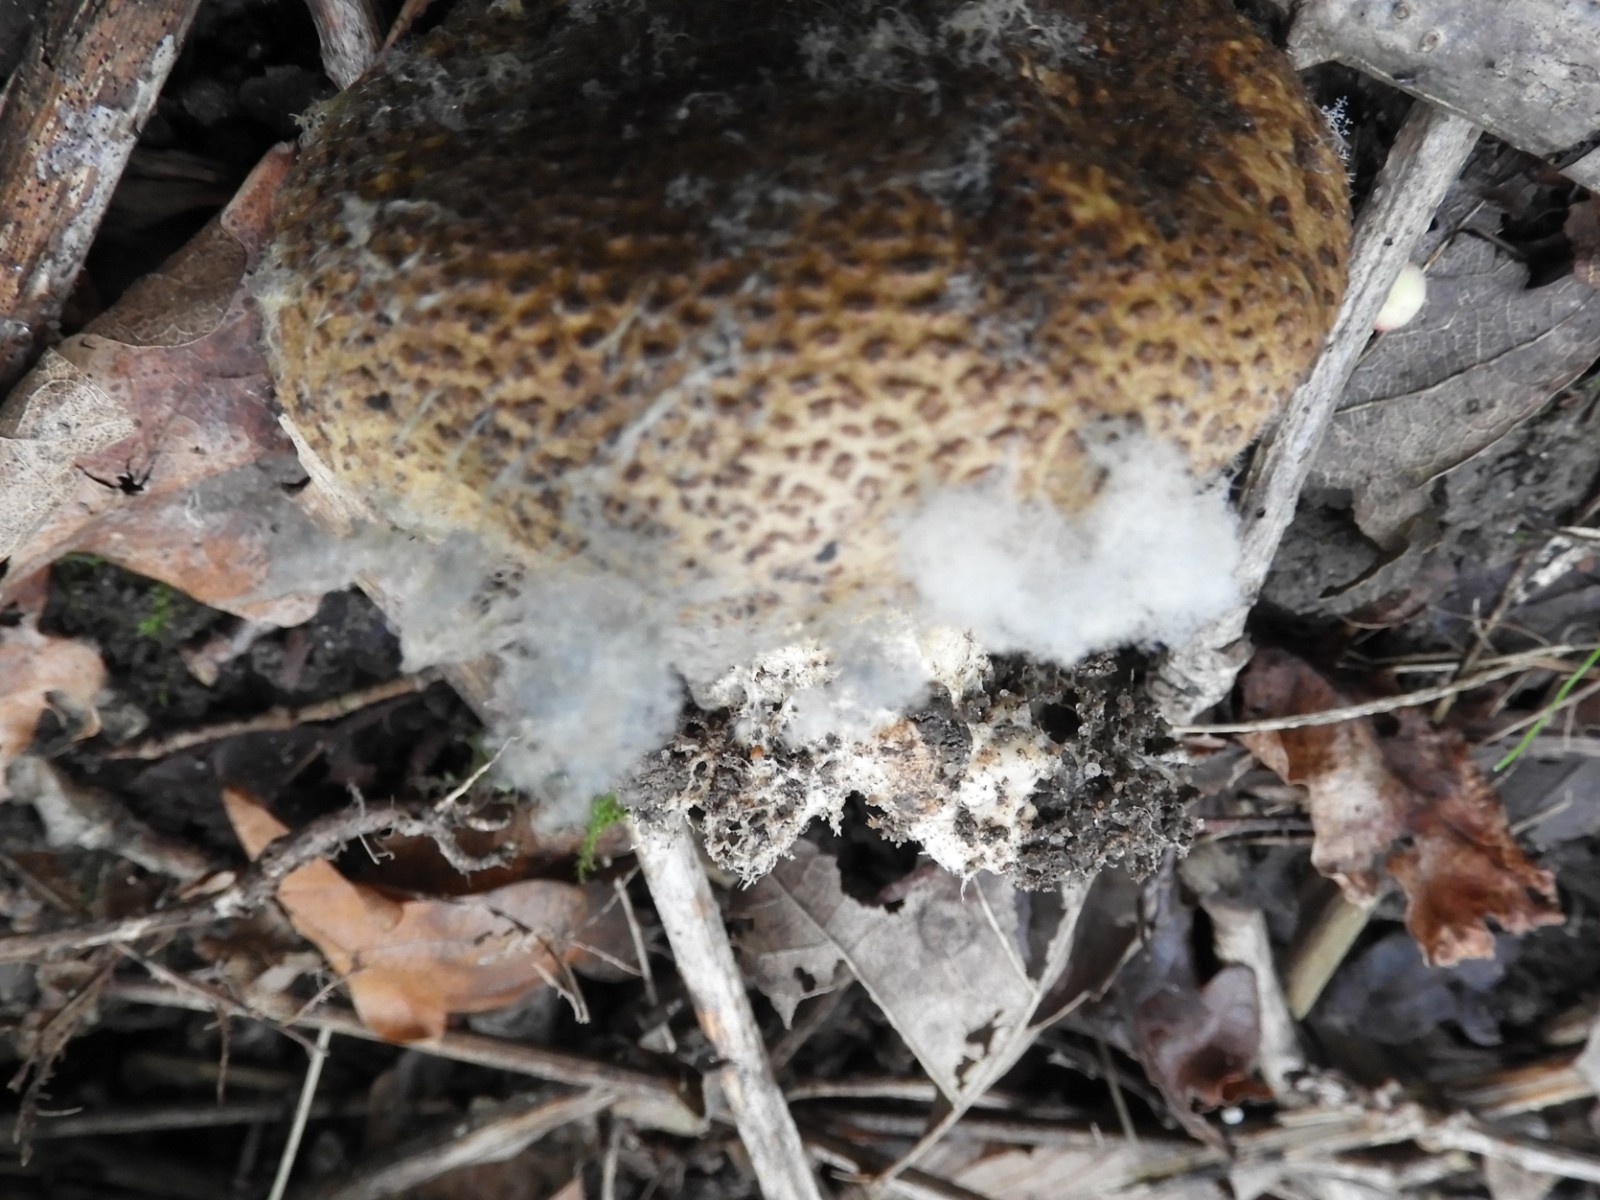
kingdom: Fungi
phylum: Mucoromycota
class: Mucoromycetes
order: Mucorales
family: Rhizopodaceae
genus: Syzygites
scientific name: Syzygites megalocarpus
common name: nissenål
